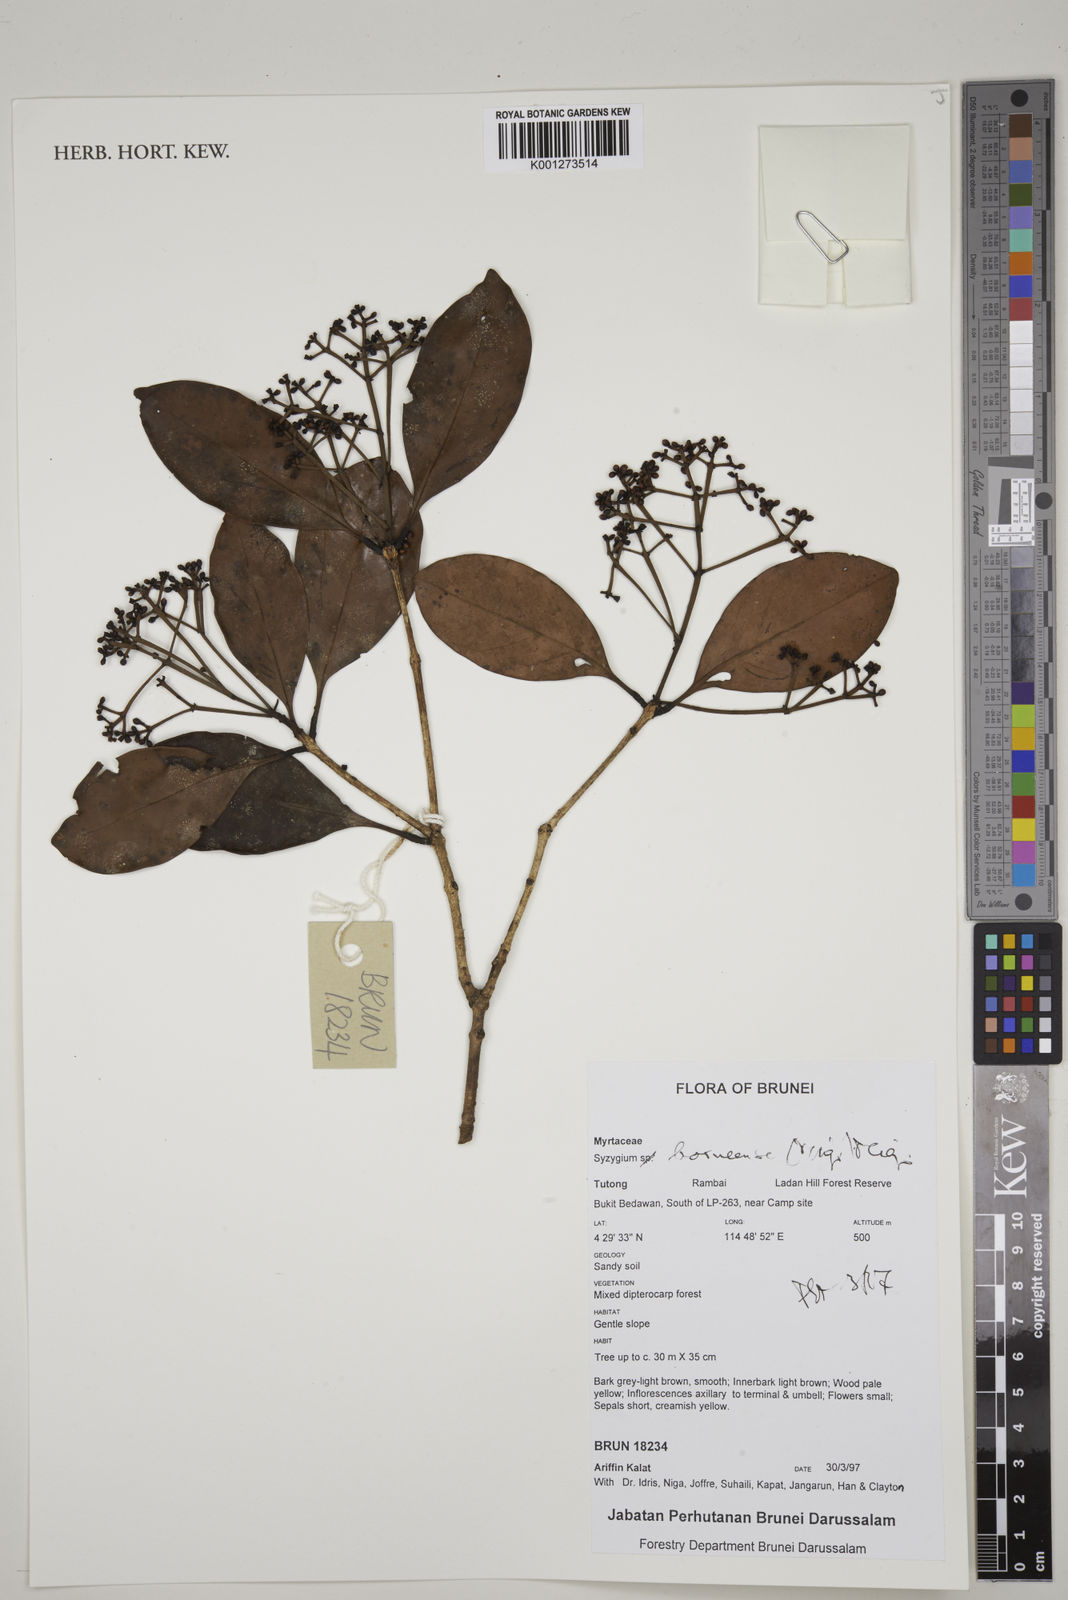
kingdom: Plantae
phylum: Tracheophyta
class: Magnoliopsida
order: Myrtales
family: Myrtaceae
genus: Syzygium
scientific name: Syzygium borneense
